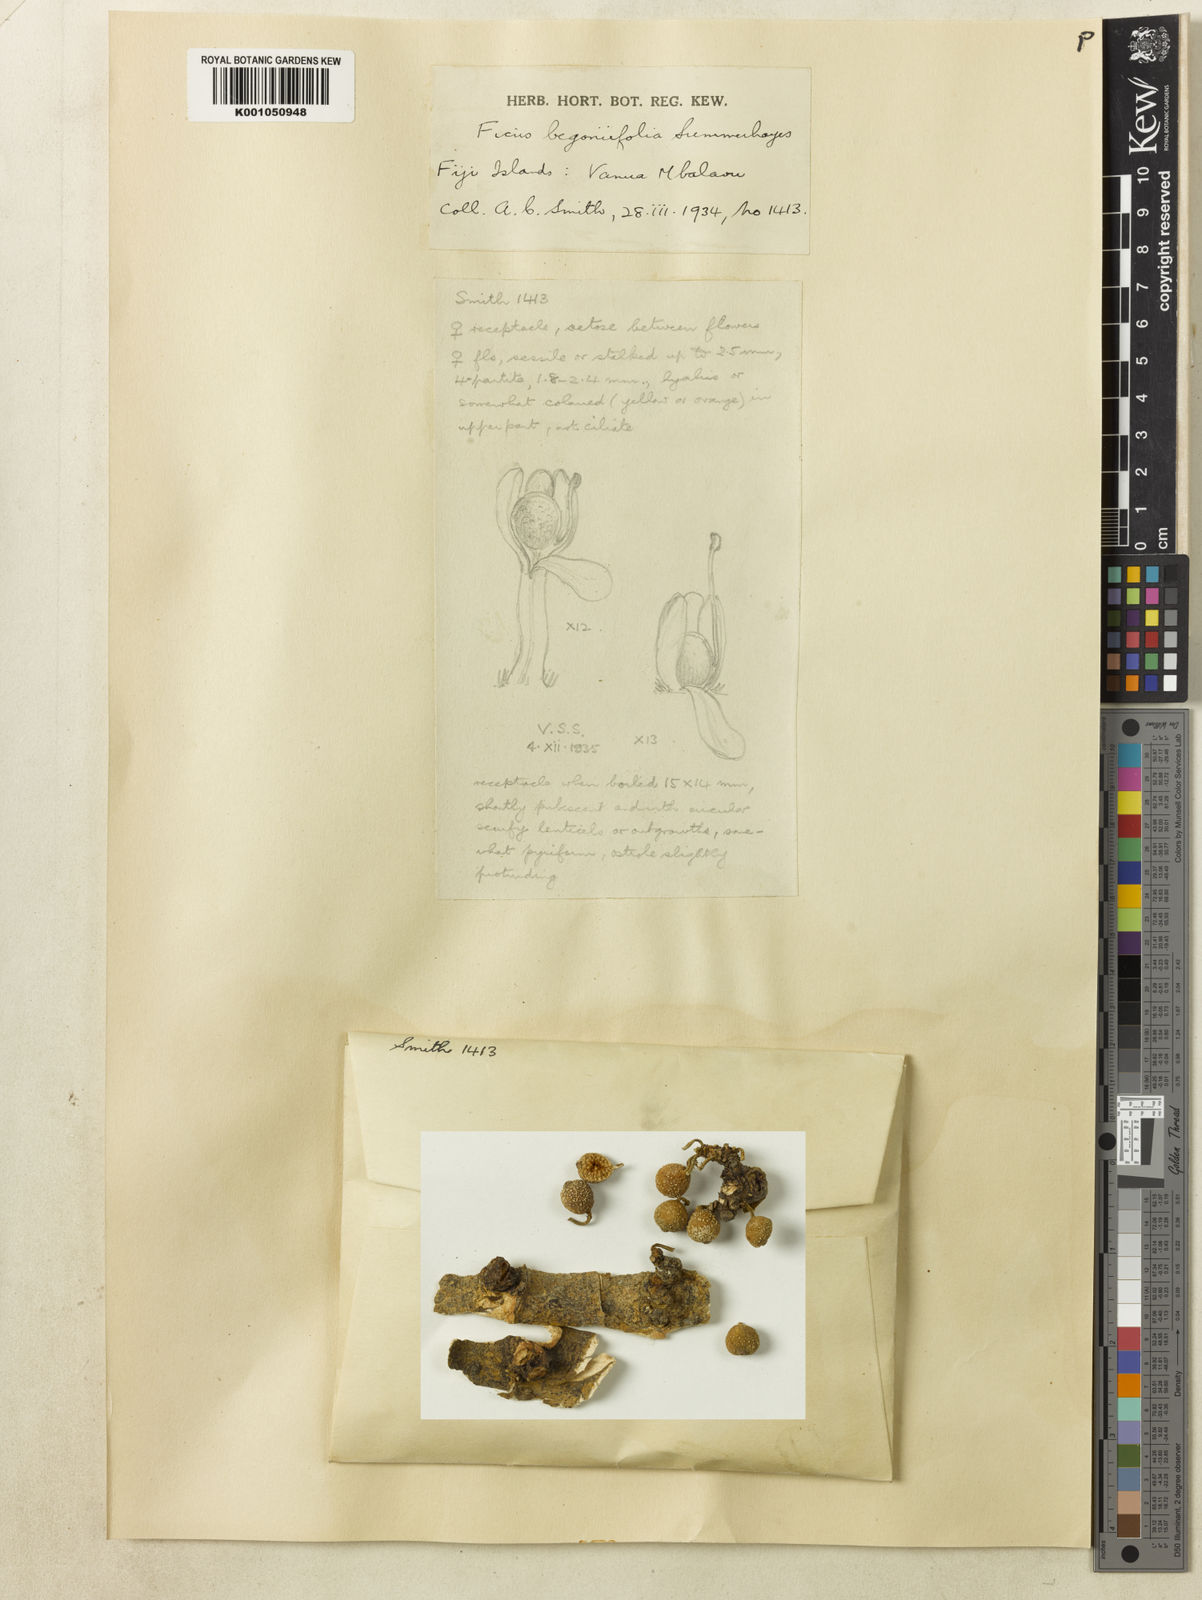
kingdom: Plantae
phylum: Tracheophyta
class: Magnoliopsida
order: Rosales
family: Moraceae
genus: Ficus
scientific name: Ficus masonii
